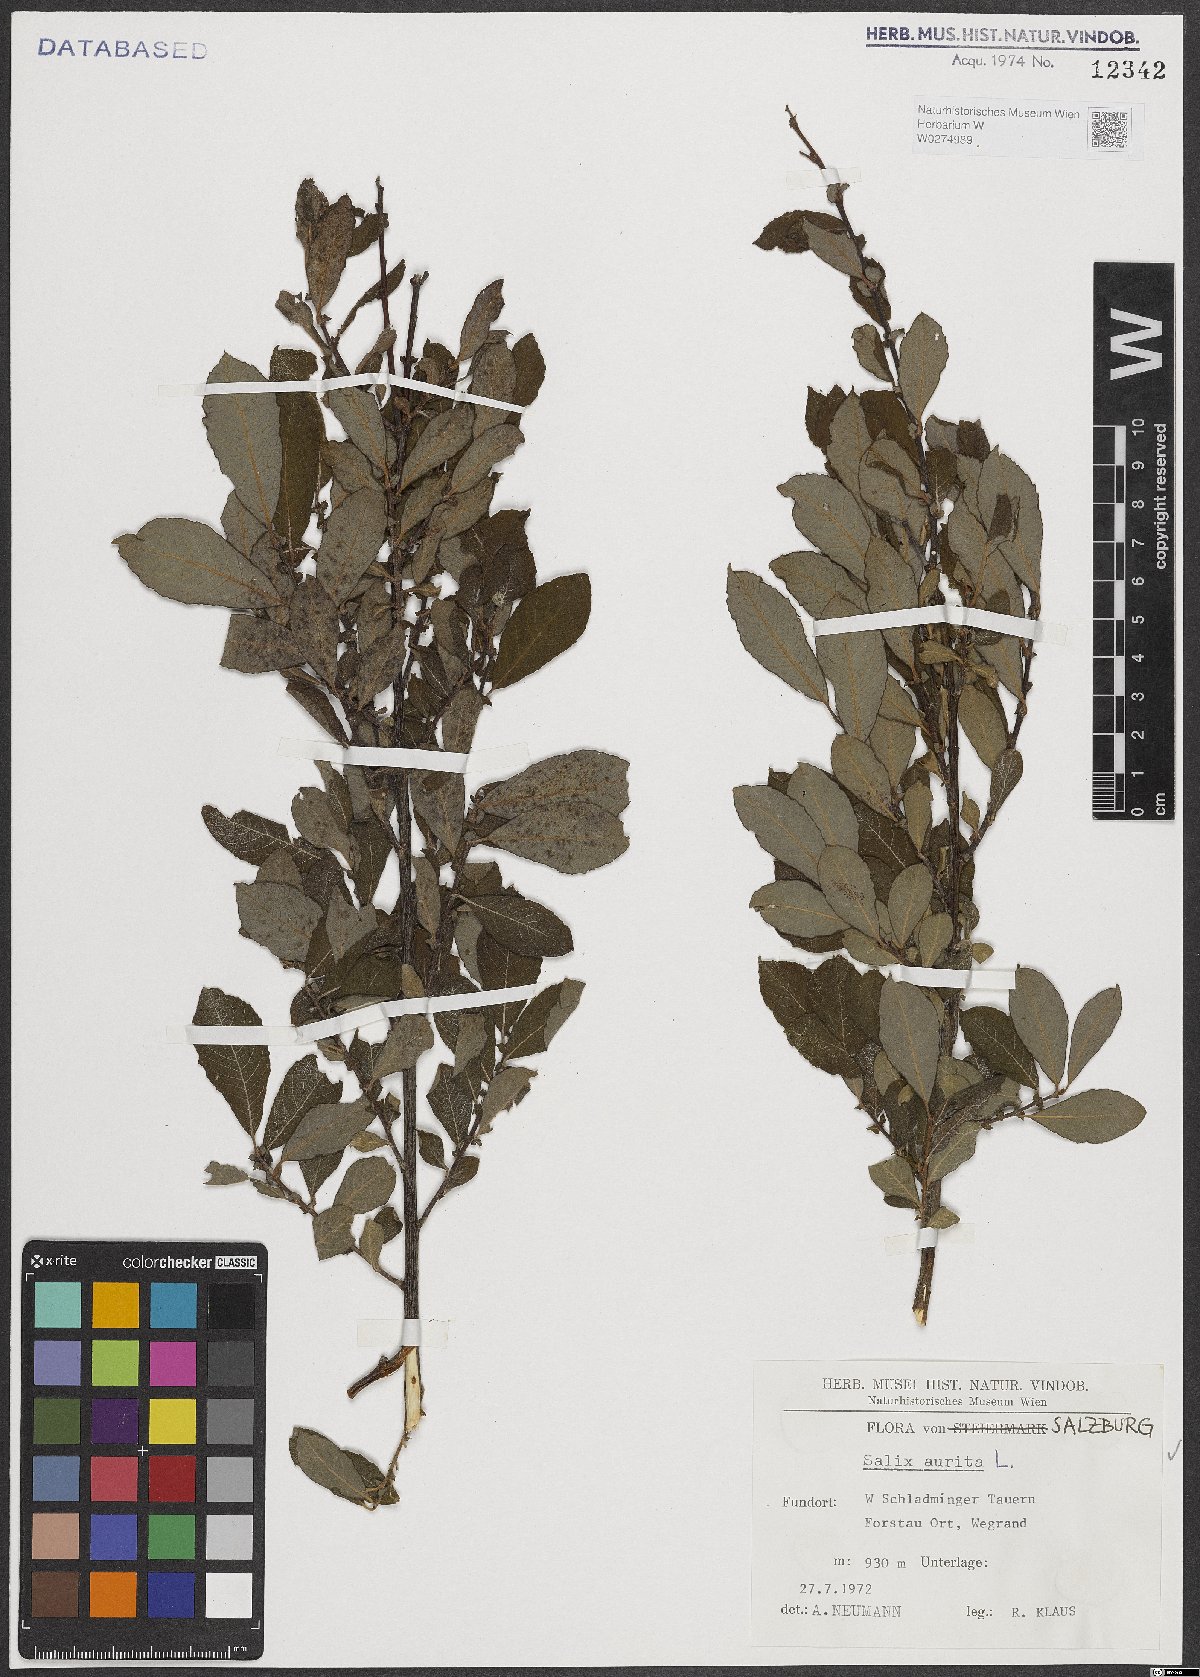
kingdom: Plantae
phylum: Tracheophyta
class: Magnoliopsida
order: Malpighiales
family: Salicaceae
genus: Salix
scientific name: Salix aurita
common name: Eared willow
